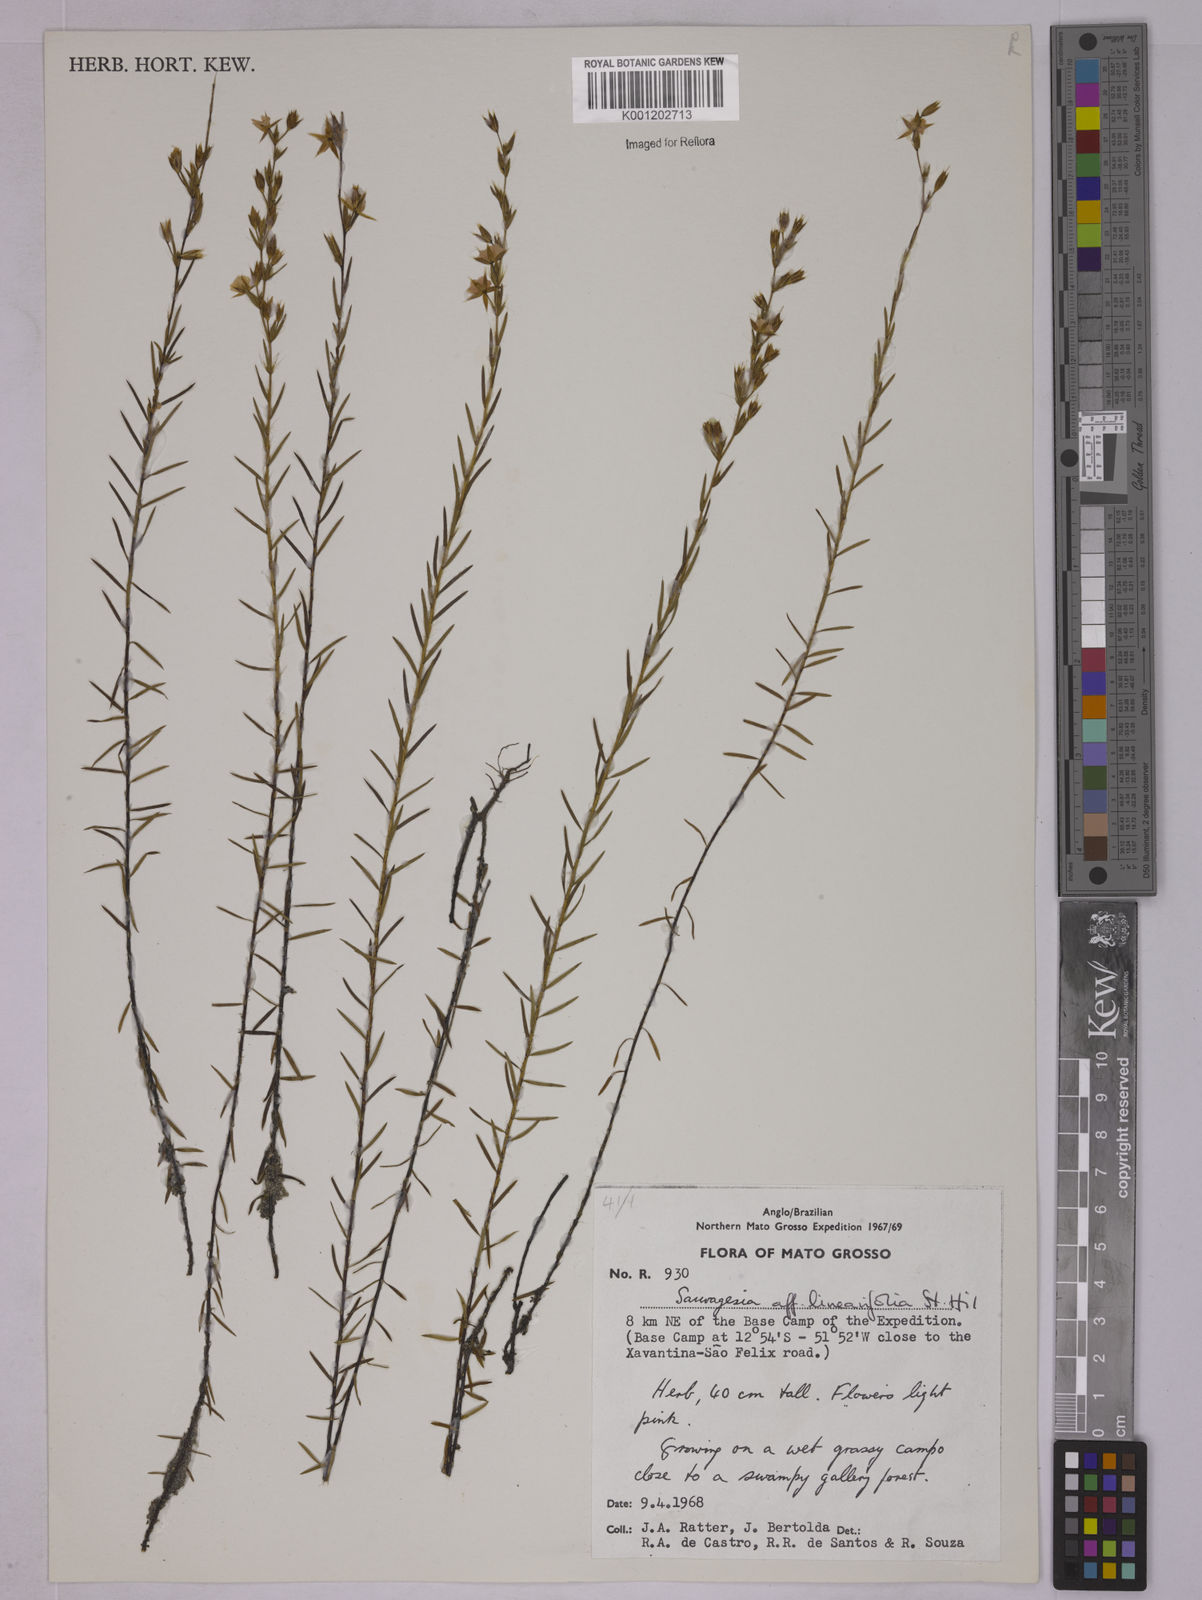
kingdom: Plantae
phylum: Tracheophyta
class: Magnoliopsida
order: Malpighiales
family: Ochnaceae
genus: Sauvagesia
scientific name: Sauvagesia linearifolia
